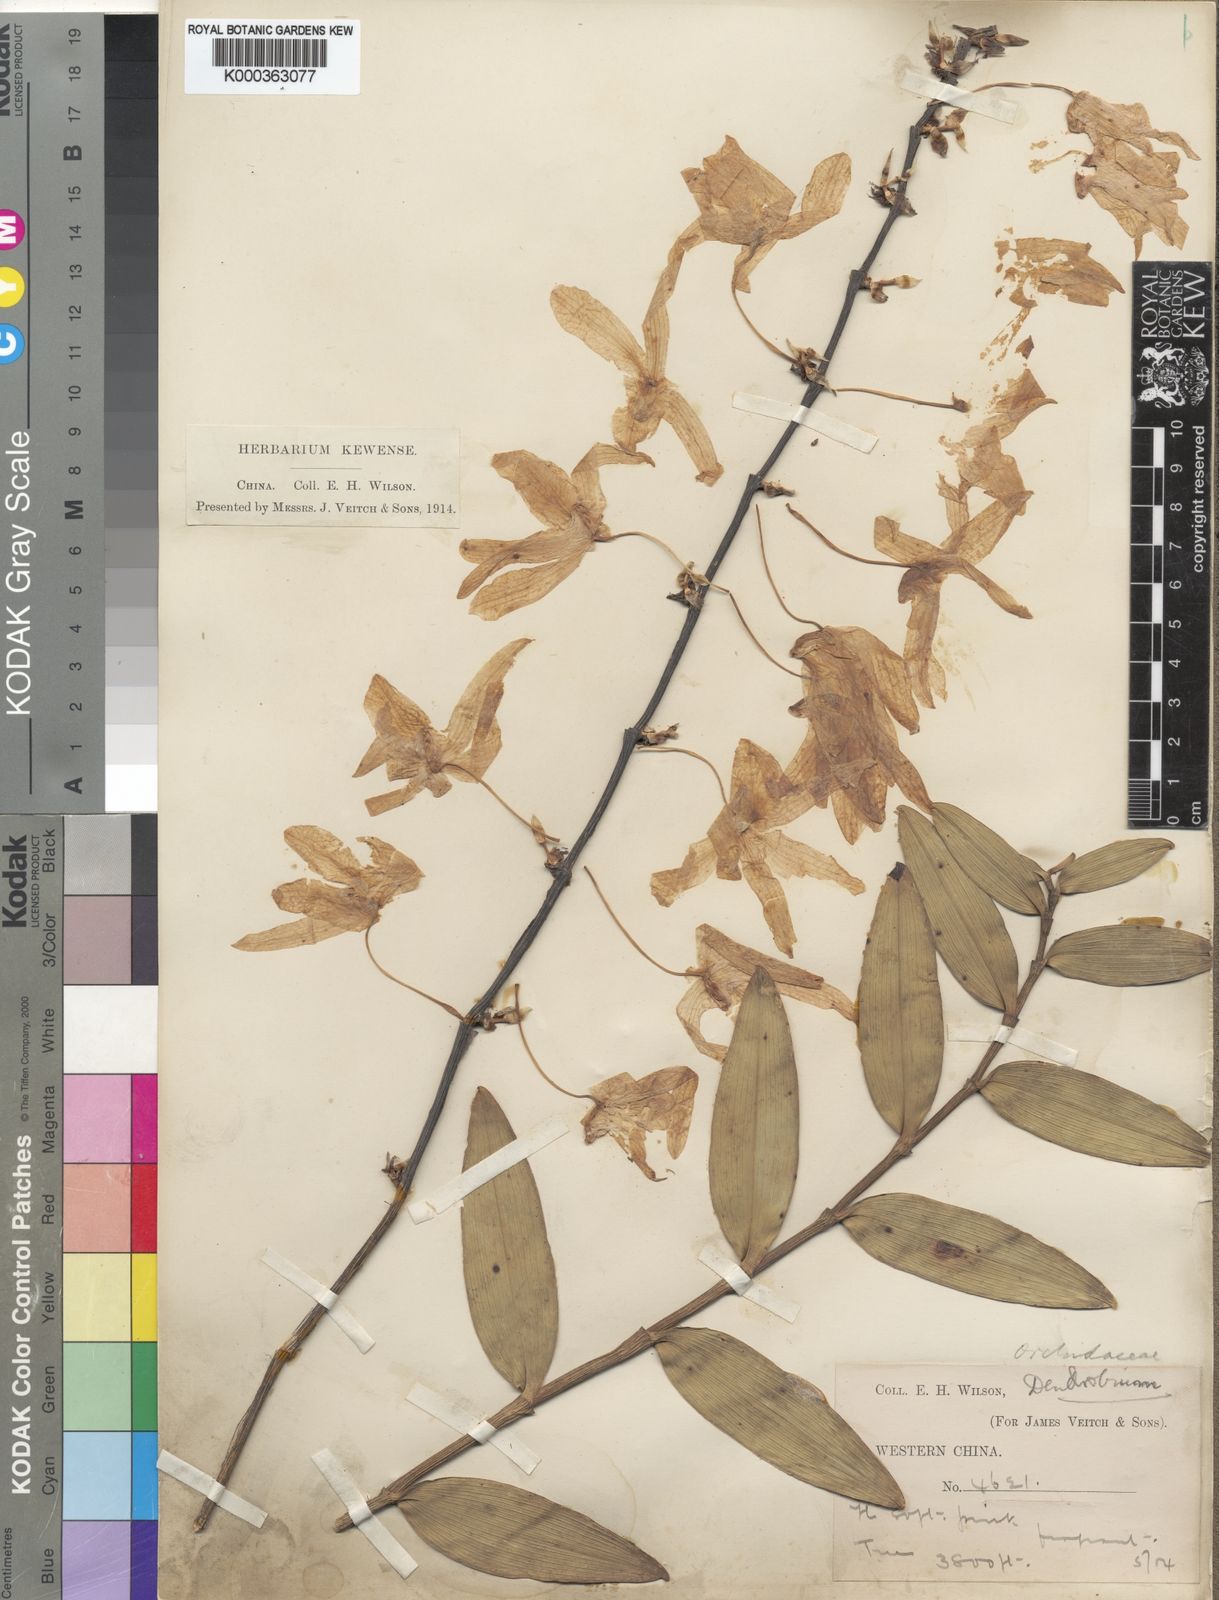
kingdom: Plantae
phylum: Tracheophyta
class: Liliopsida
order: Asparagales
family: Orchidaceae
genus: Dendrobium
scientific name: Dendrobium wilsonii
